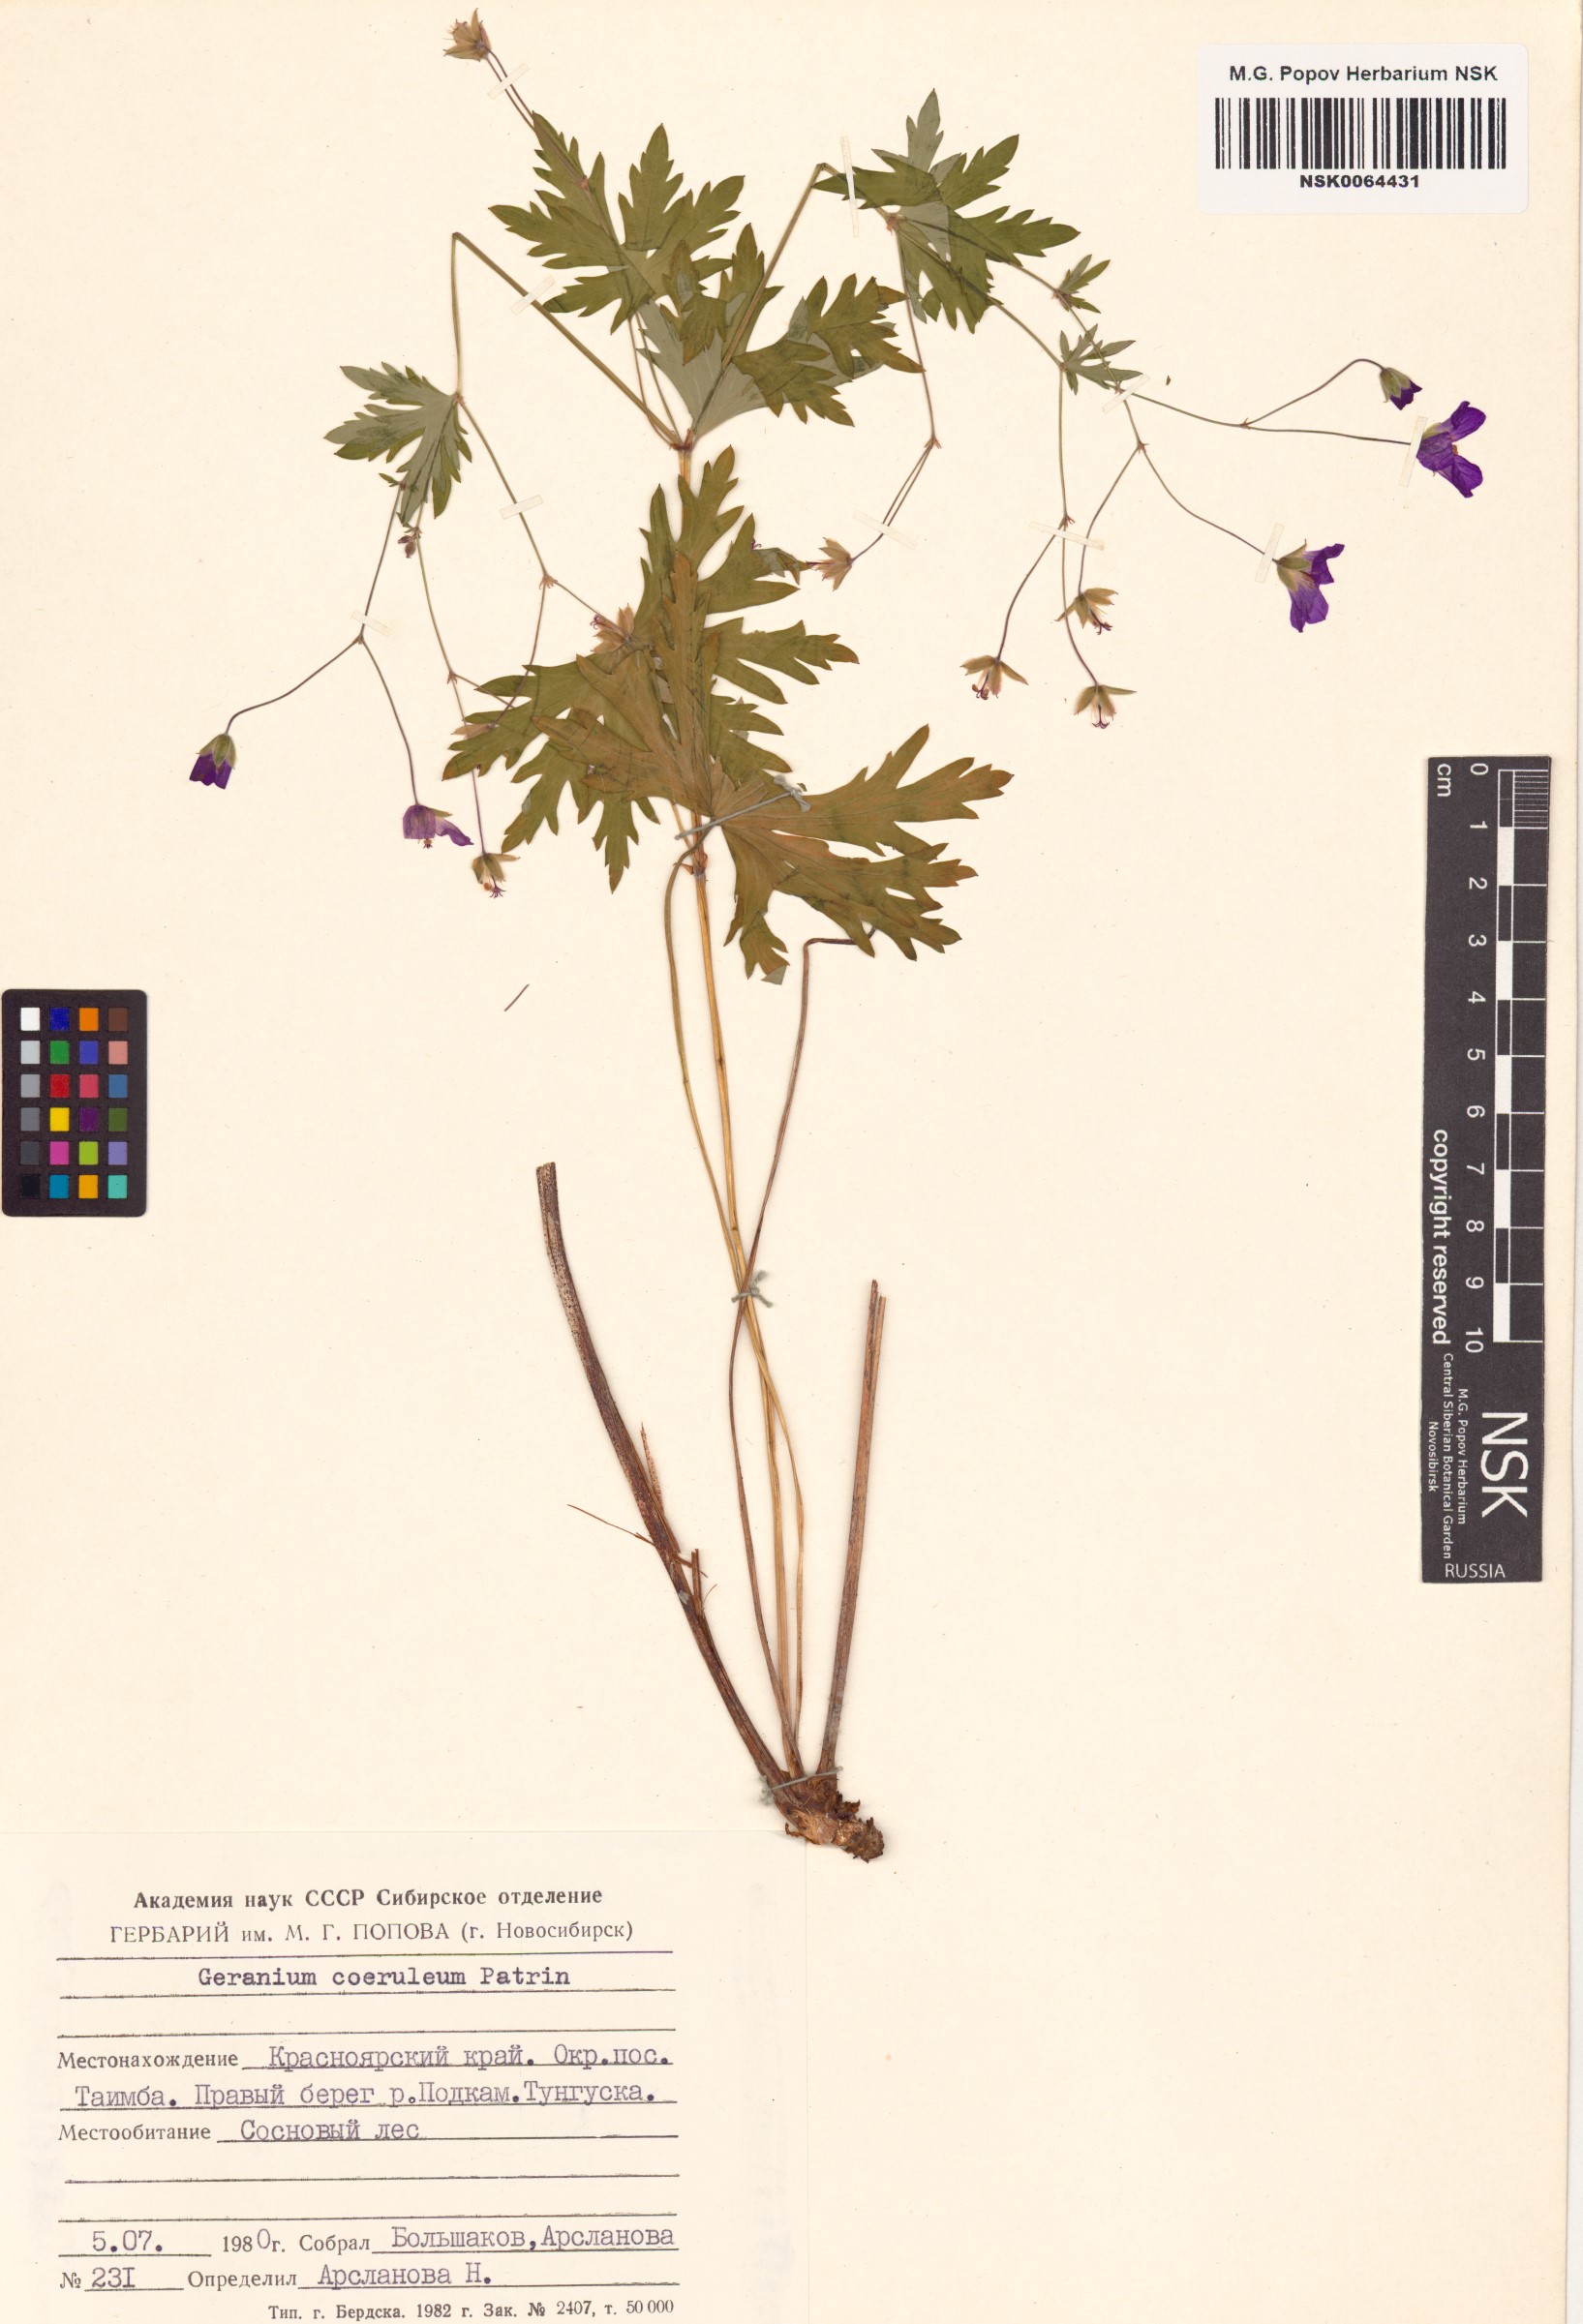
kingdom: Plantae
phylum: Tracheophyta
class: Magnoliopsida
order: Geraniales
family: Geraniaceae
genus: Geranium
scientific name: Geranium pseudosibiricum
